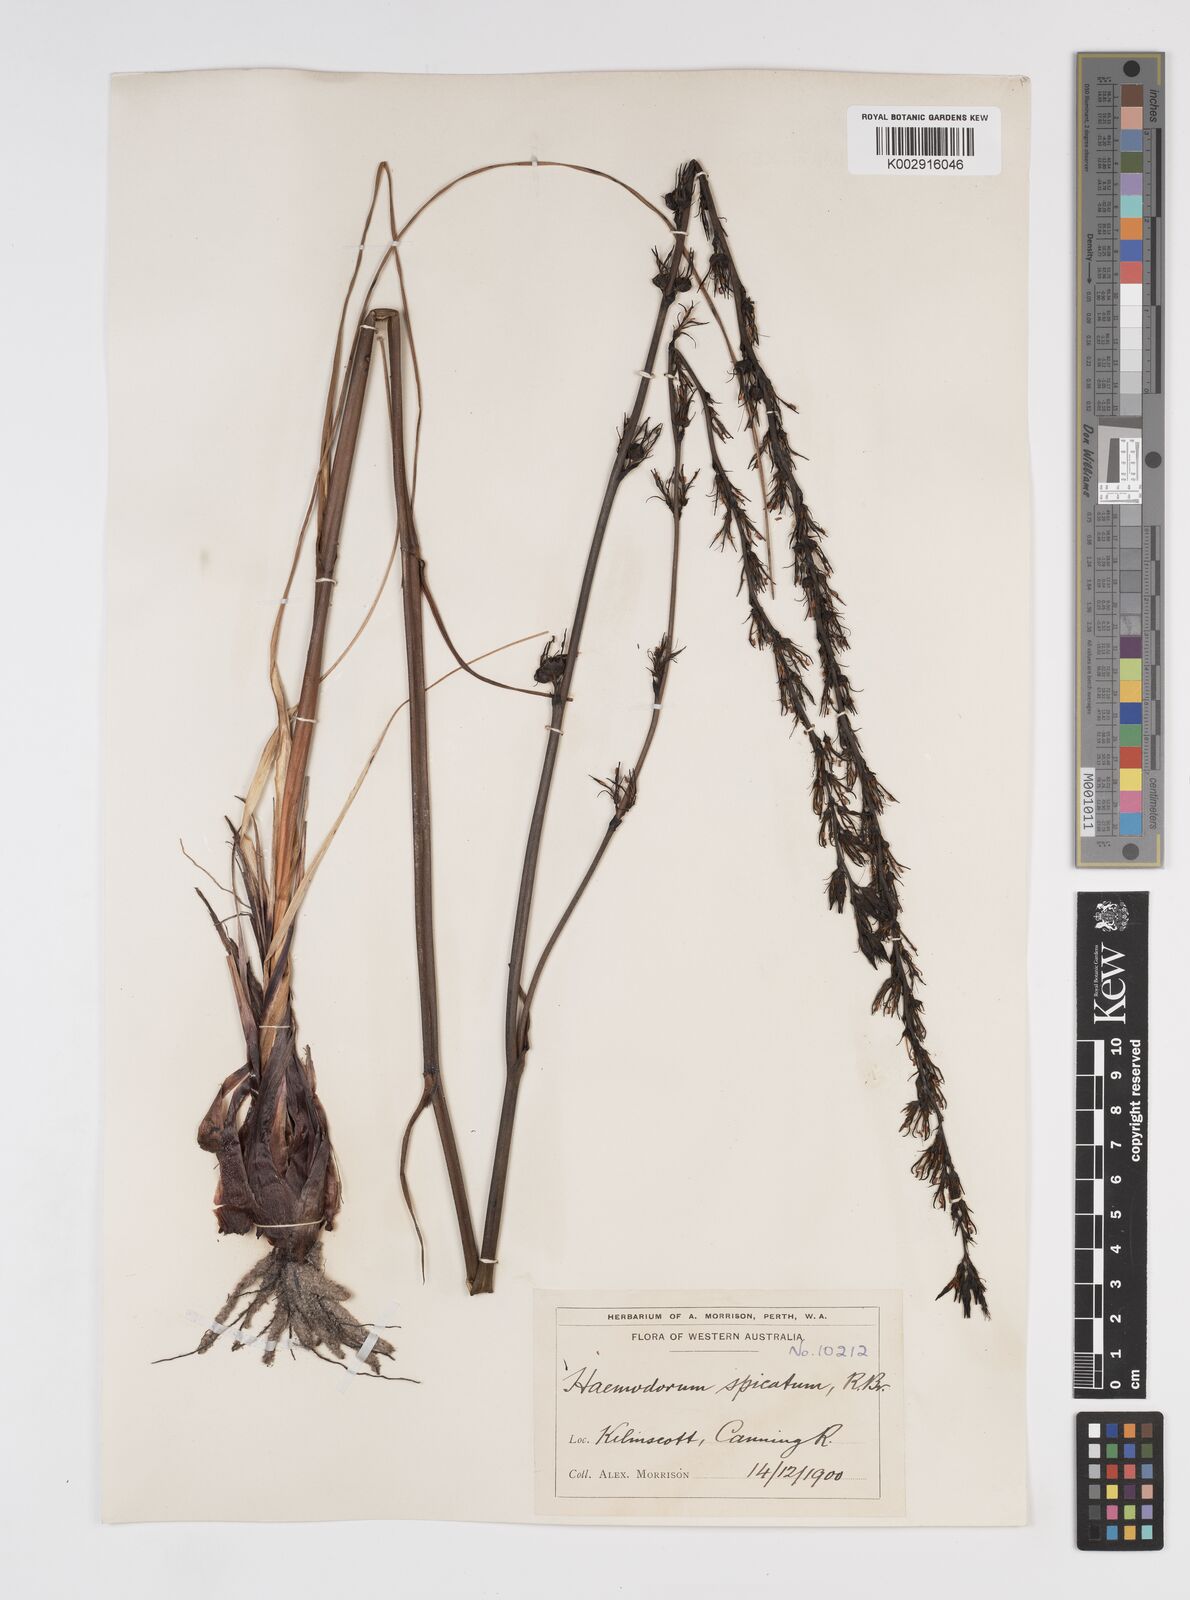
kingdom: Plantae
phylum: Tracheophyta
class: Liliopsida
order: Commelinales
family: Haemodoraceae
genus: Haemodorum
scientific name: Haemodorum spicatum
